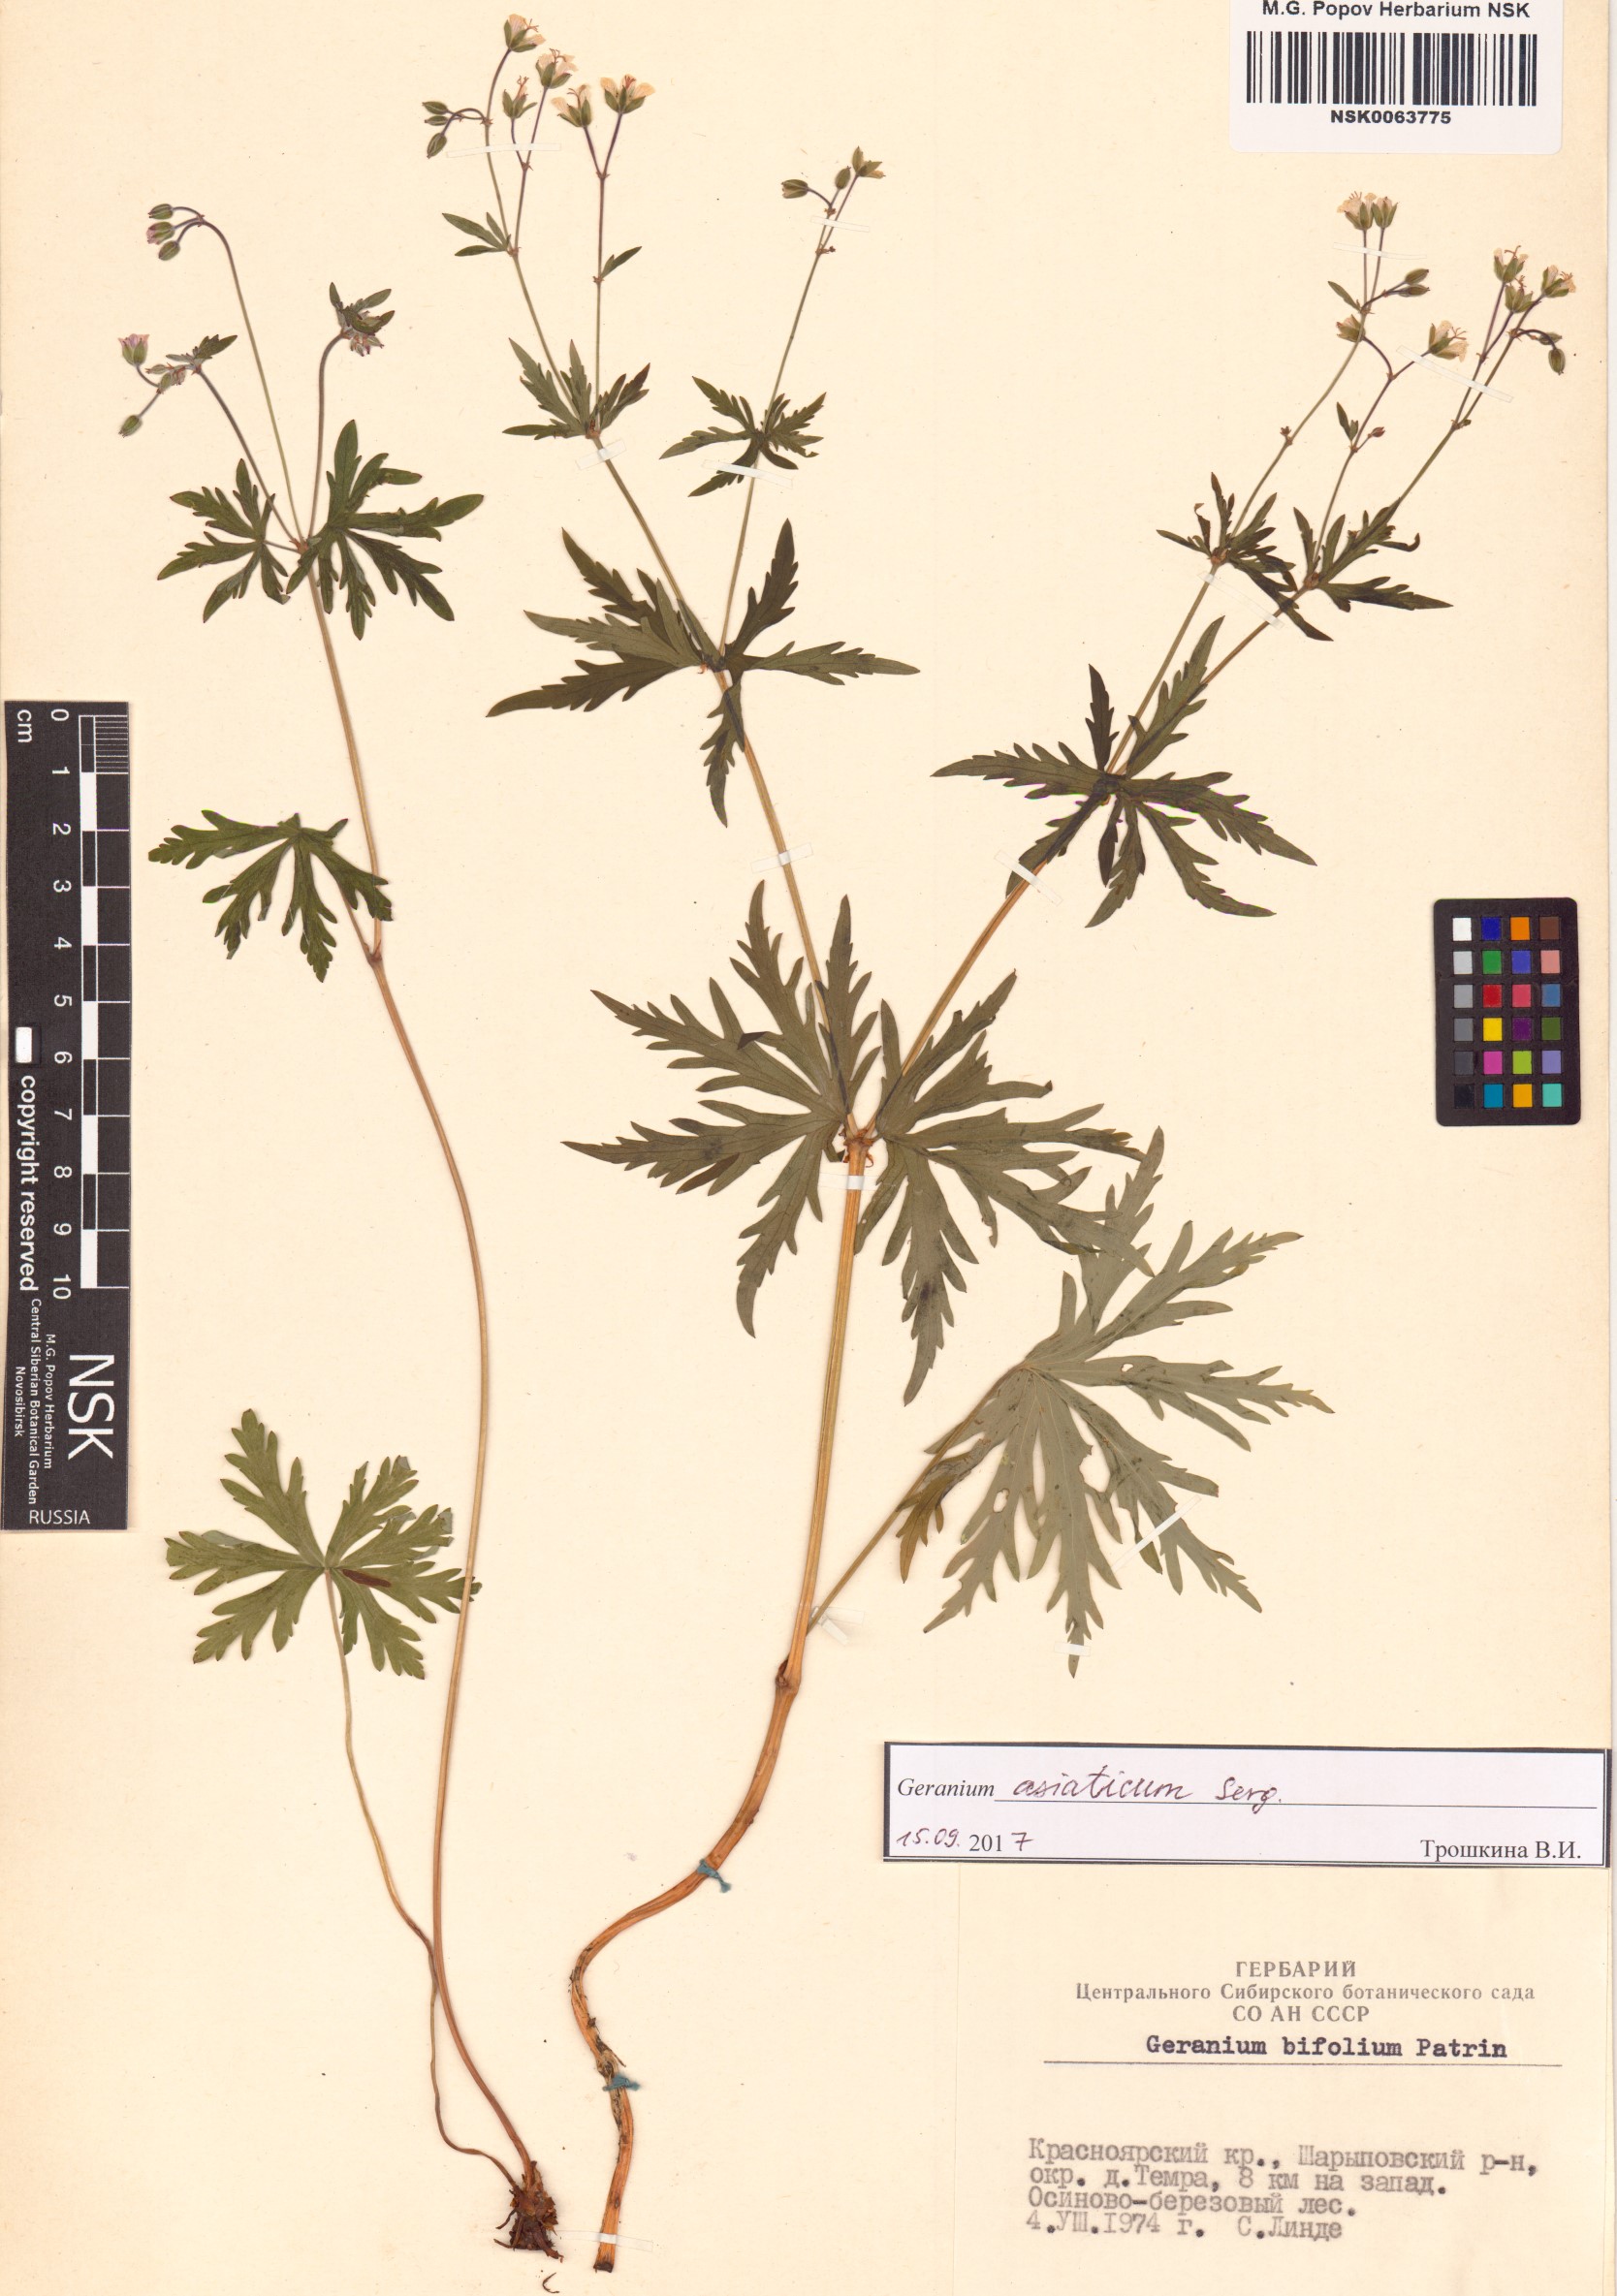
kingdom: Plantae
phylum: Tracheophyta
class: Magnoliopsida
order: Geraniales
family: Geraniaceae
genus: Geranium
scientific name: Geranium pseudosibiricum
